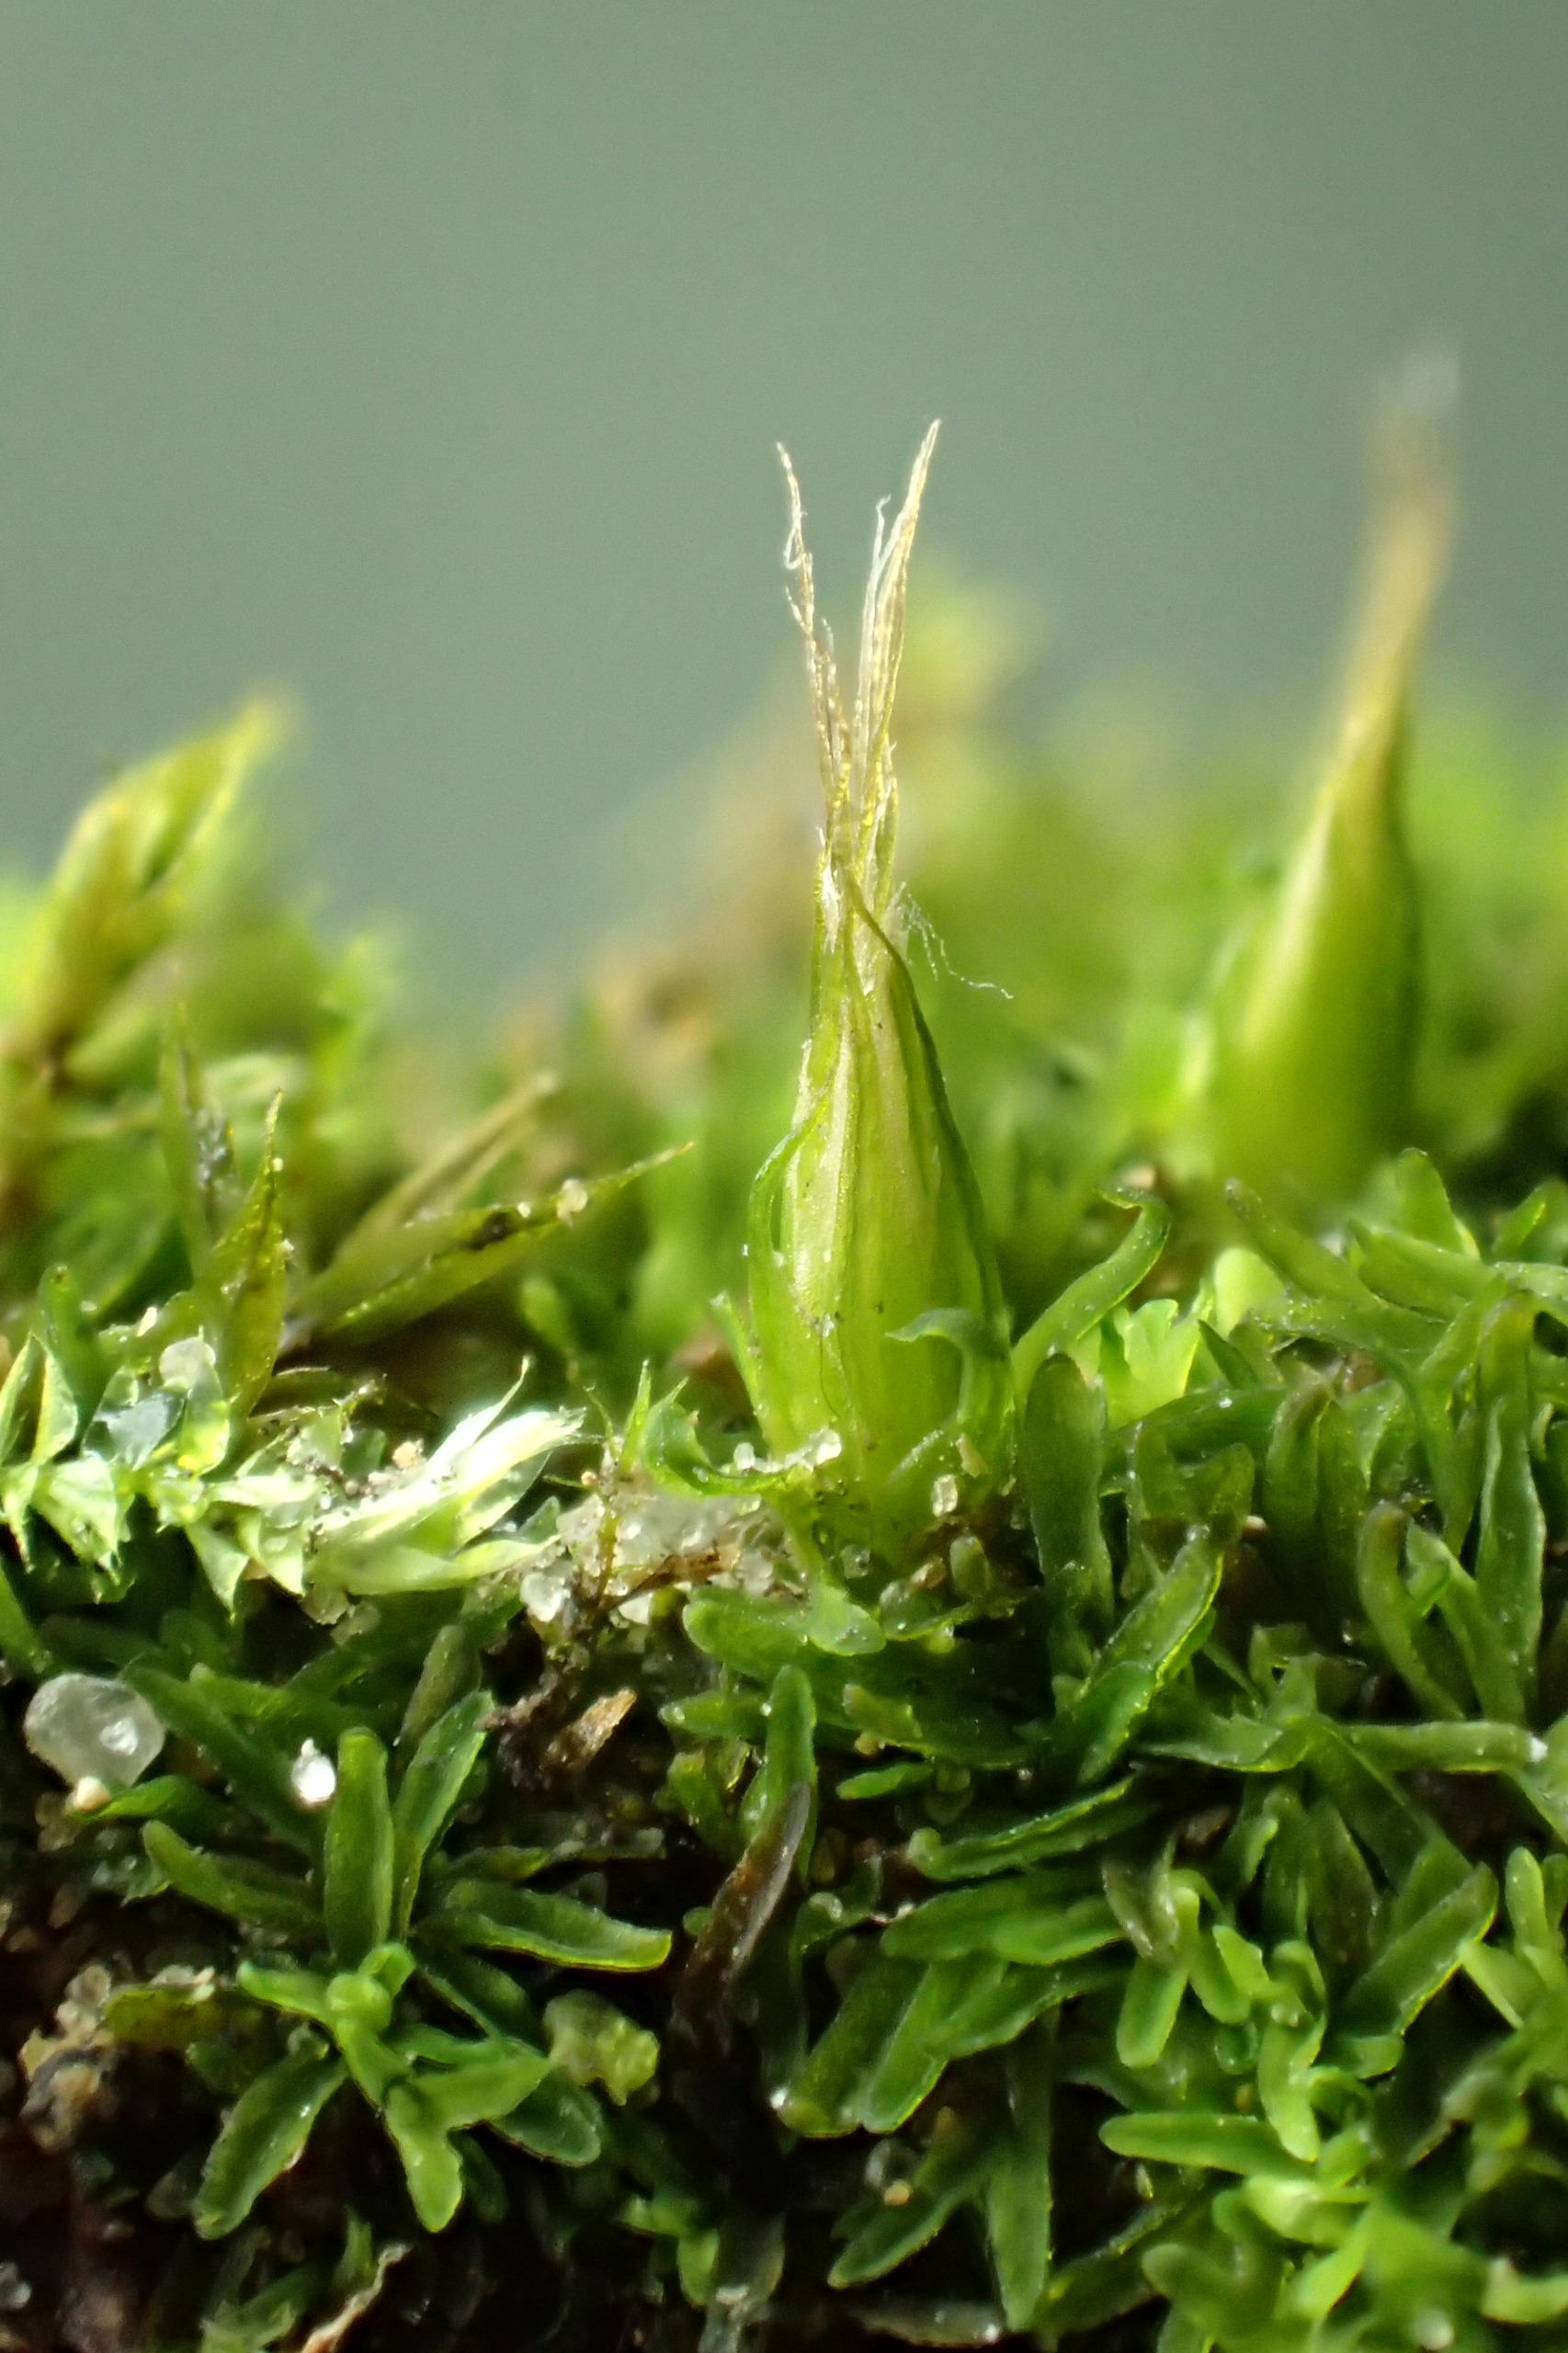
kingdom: Plantae
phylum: Bryophyta
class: Bryopsida
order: Diphysciales
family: Diphysciaceae
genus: Diphyscium
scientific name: Diphyscium foliosum
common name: Stilkløs sækkapsel
